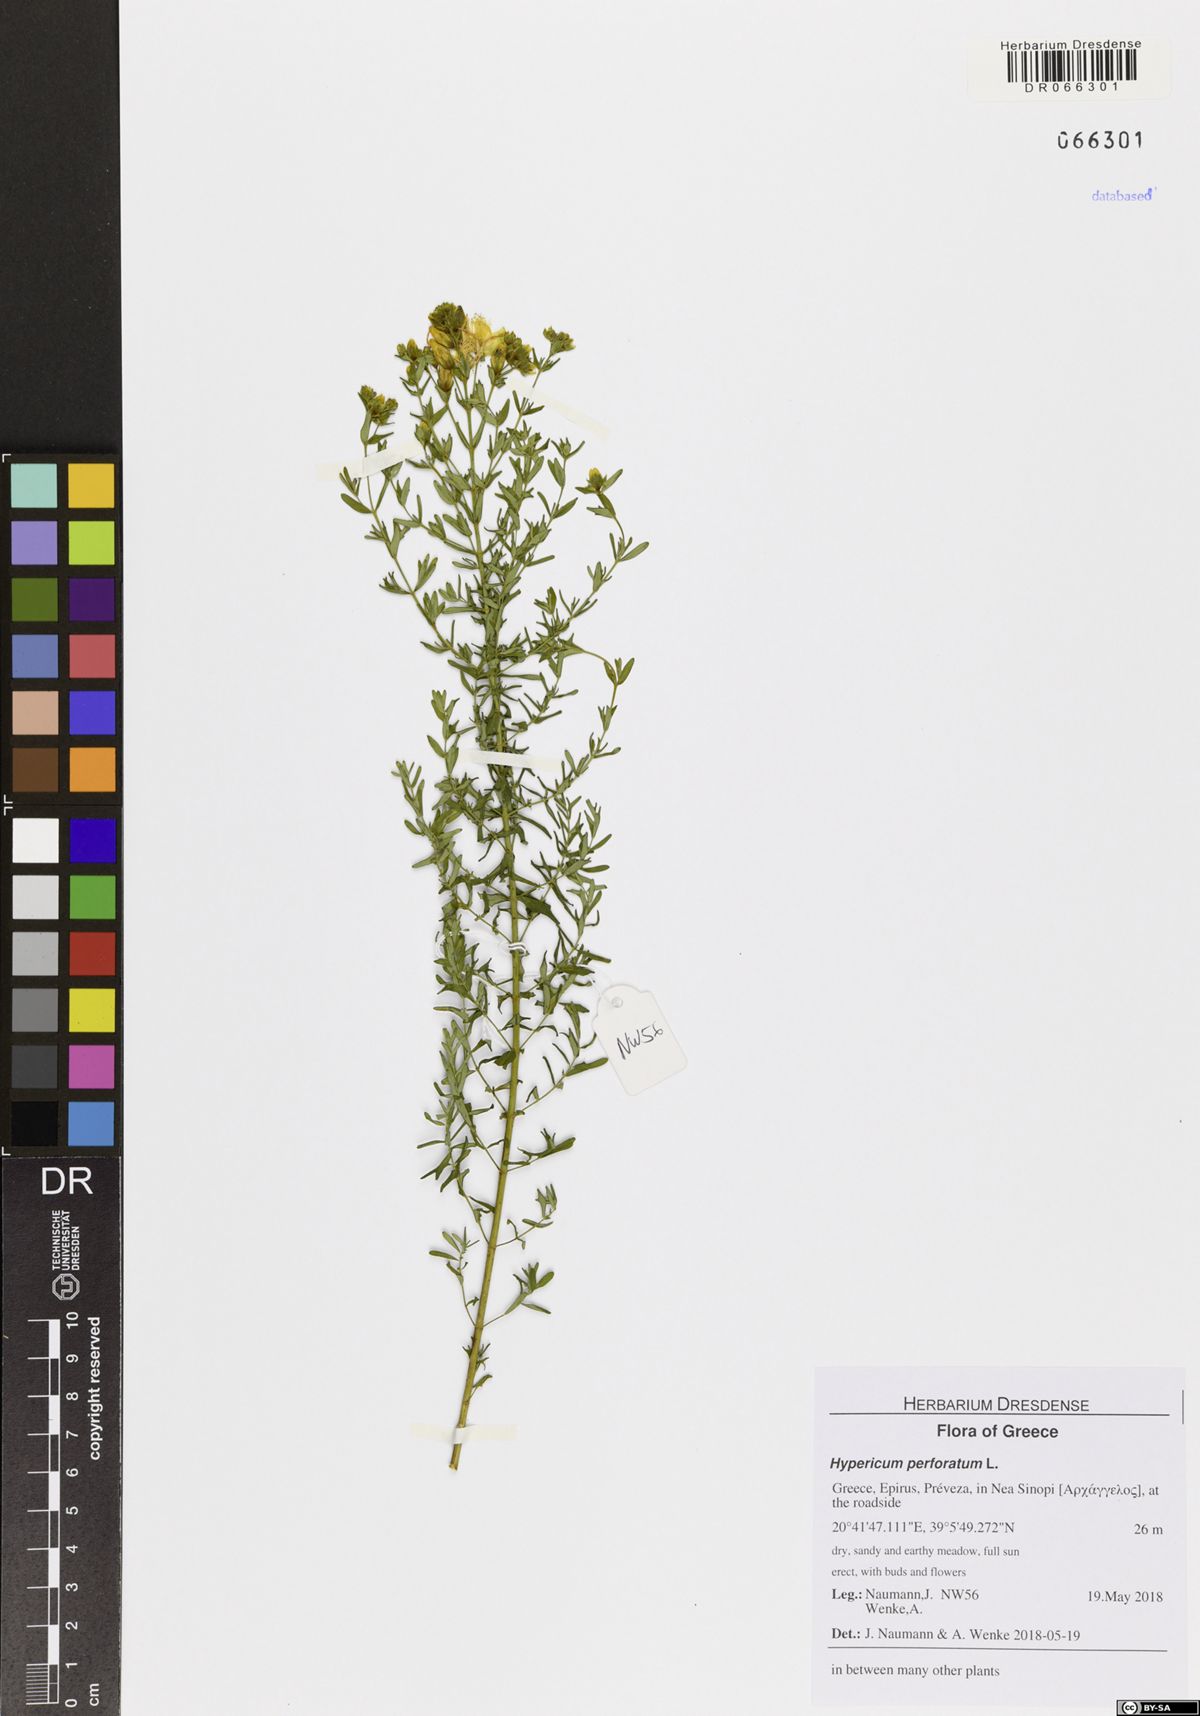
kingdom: Plantae
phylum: Tracheophyta
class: Magnoliopsida
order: Malpighiales
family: Hypericaceae
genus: Hypericum
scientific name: Hypericum perforatum
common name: Common st. johnswort
